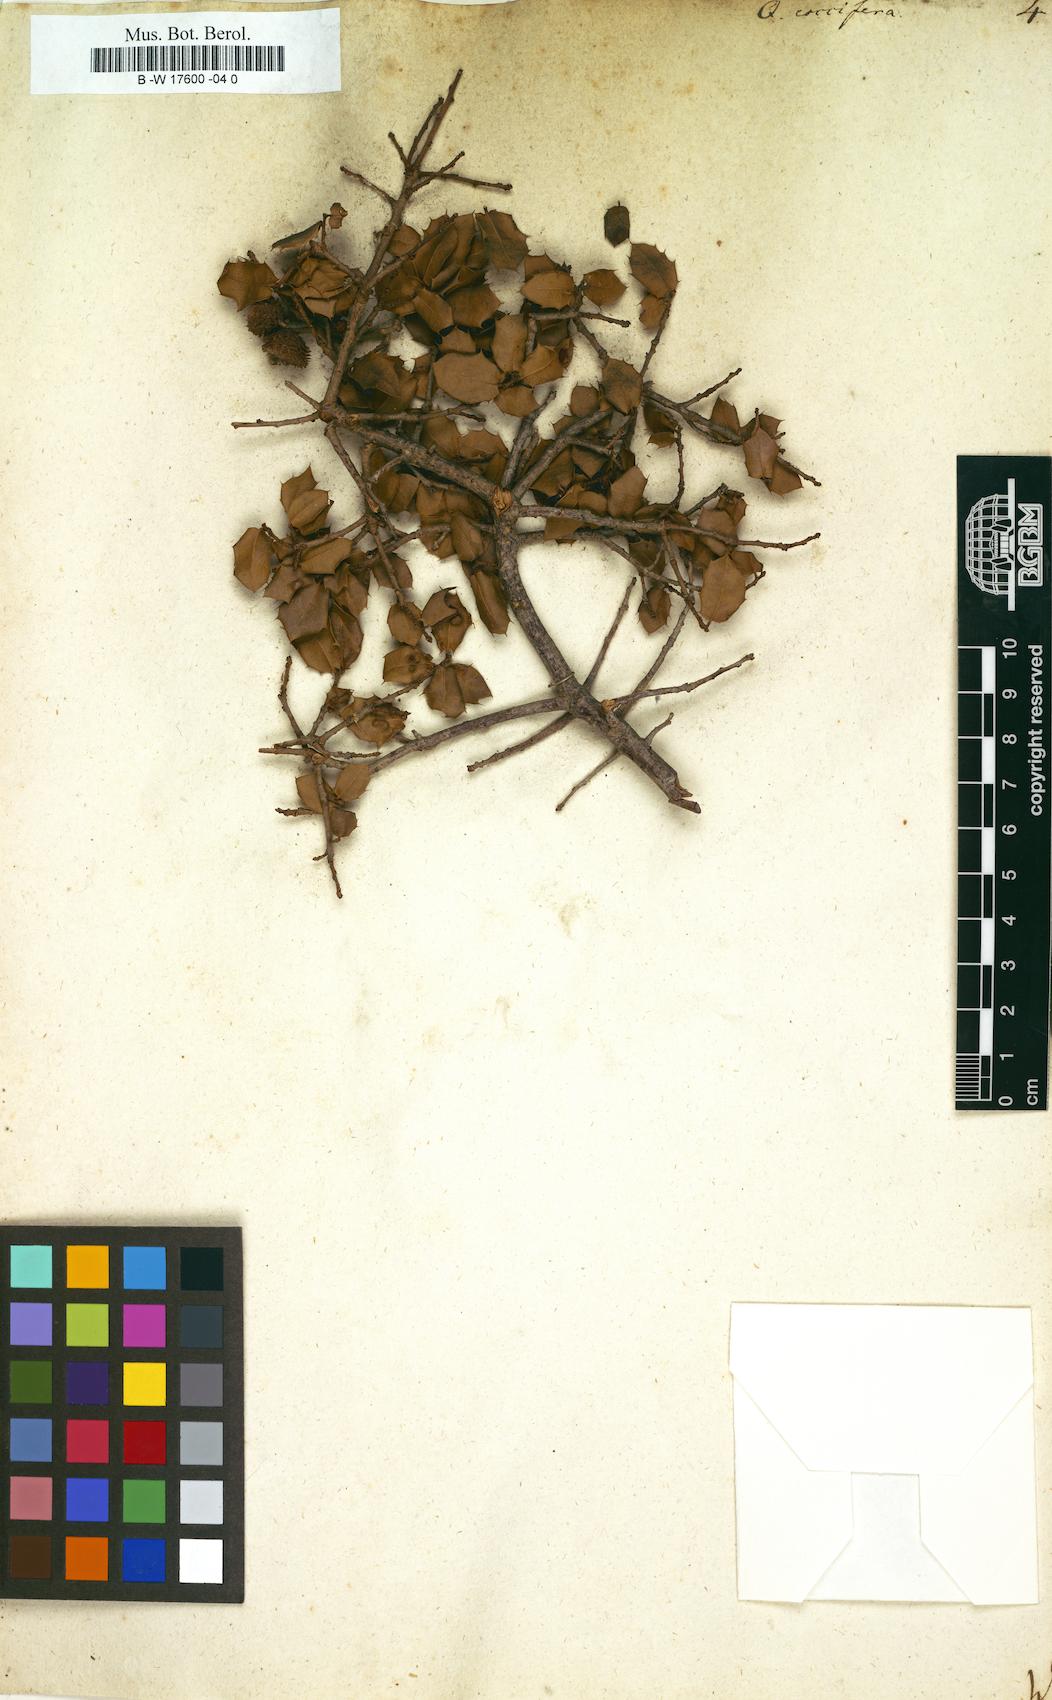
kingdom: Plantae
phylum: Tracheophyta
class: Magnoliopsida
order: Fagales
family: Fagaceae
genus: Quercus
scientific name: Quercus coccifera
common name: Kermes oak
